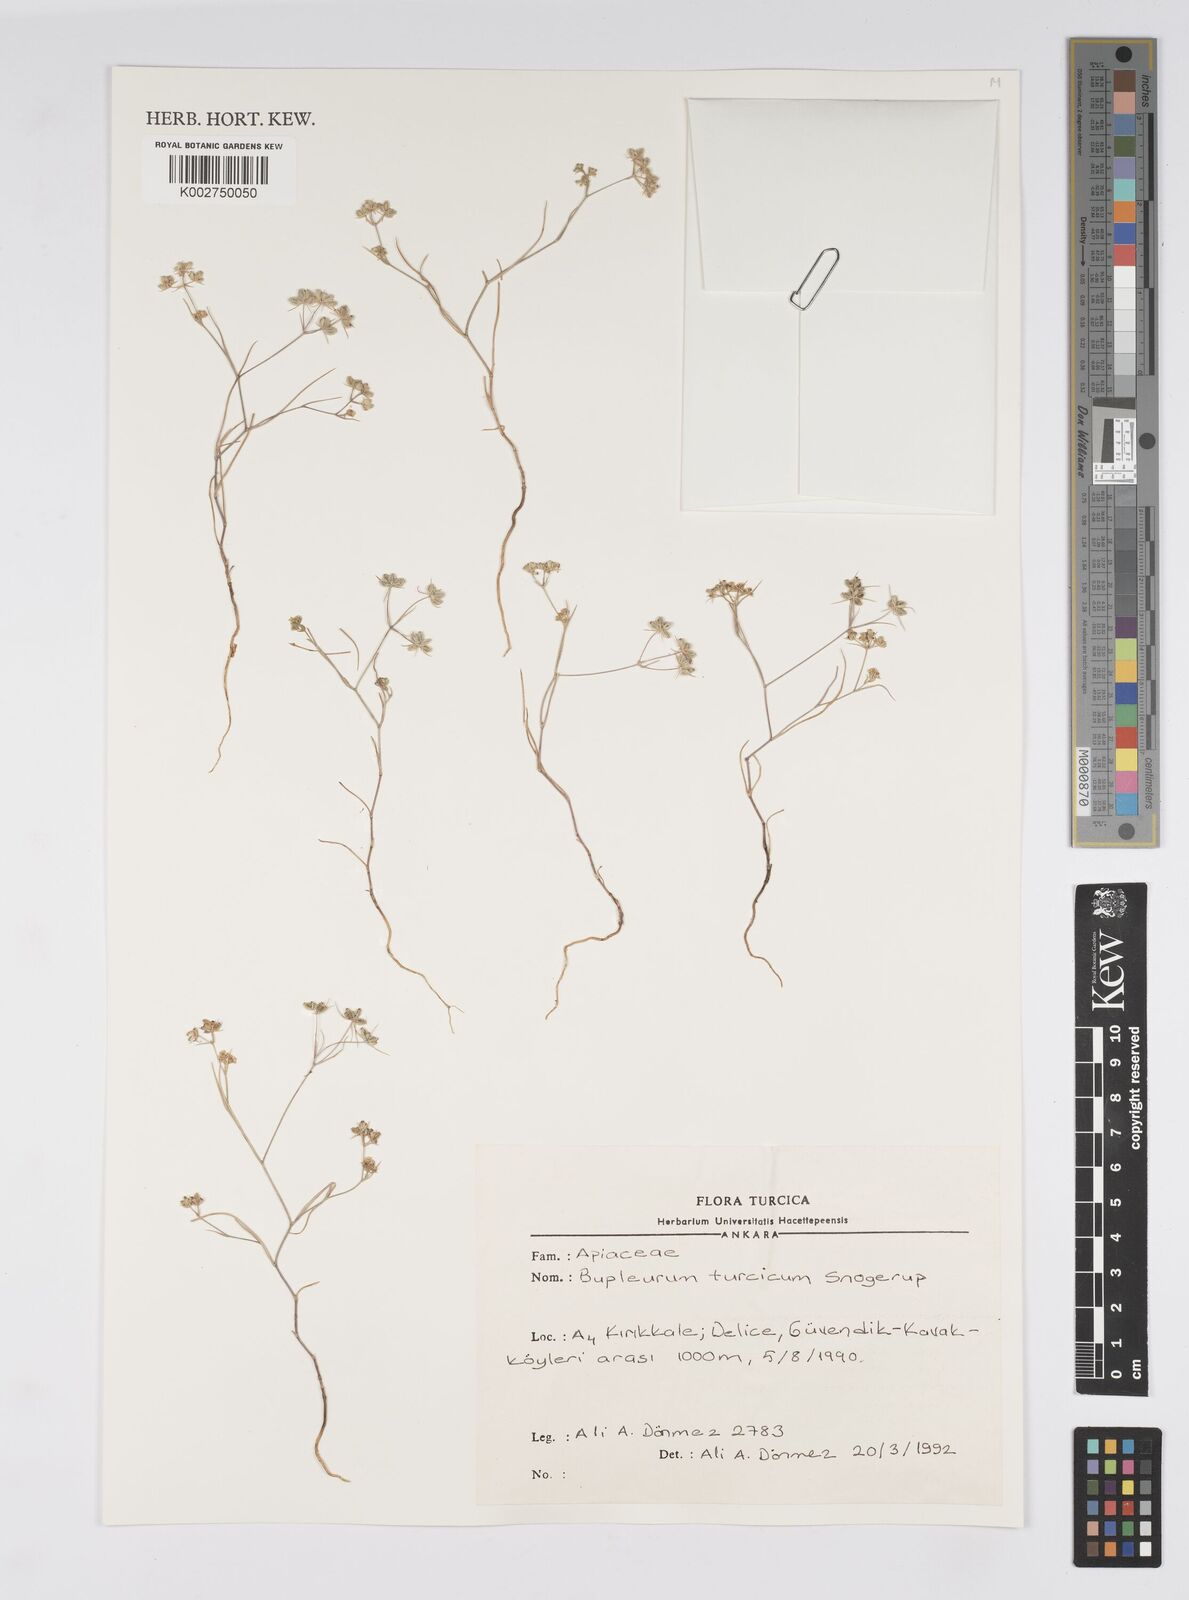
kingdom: Plantae
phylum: Tracheophyta
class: Magnoliopsida
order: Apiales
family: Apiaceae
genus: Bupleurum
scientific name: Bupleurum turcicum
